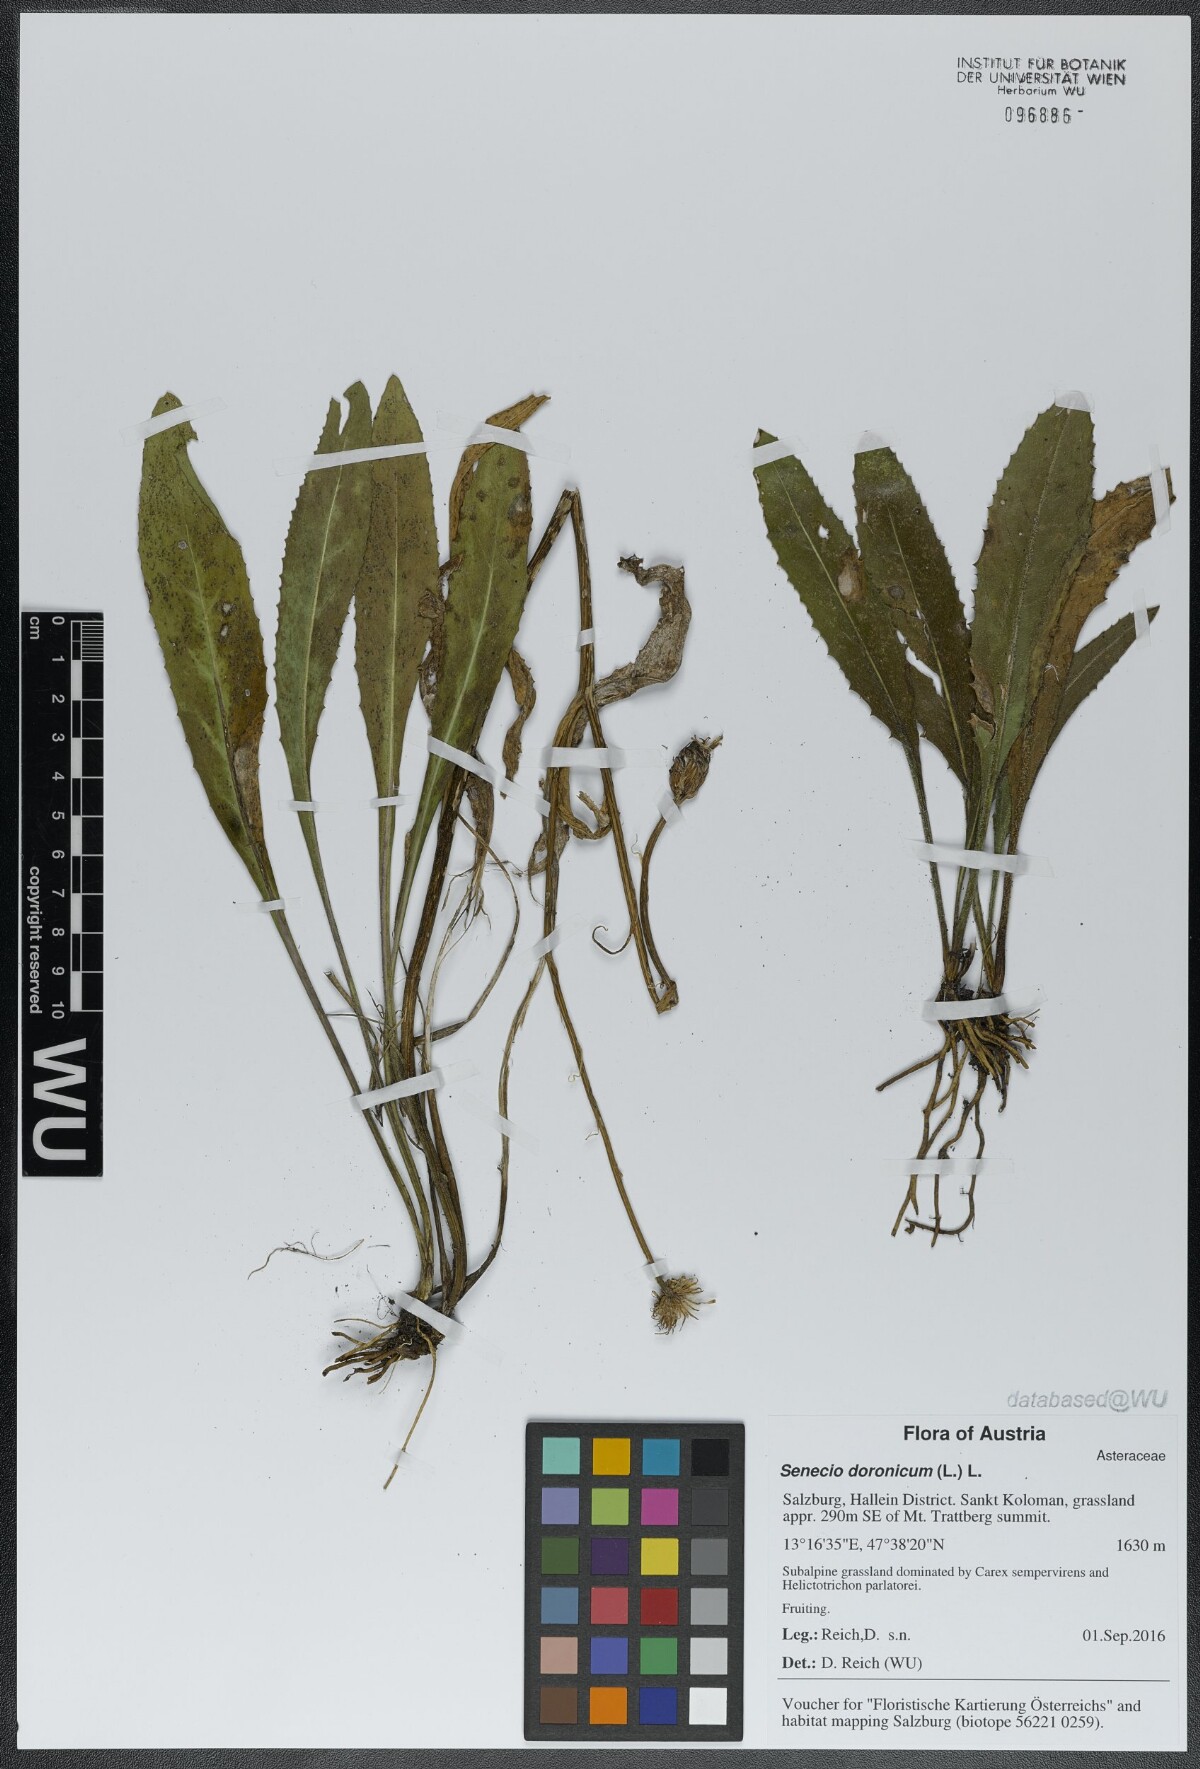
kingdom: Plantae
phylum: Tracheophyta
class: Magnoliopsida
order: Asterales
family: Asteraceae
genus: Senecio
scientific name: Senecio doronicum
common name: Chamois ragwort
